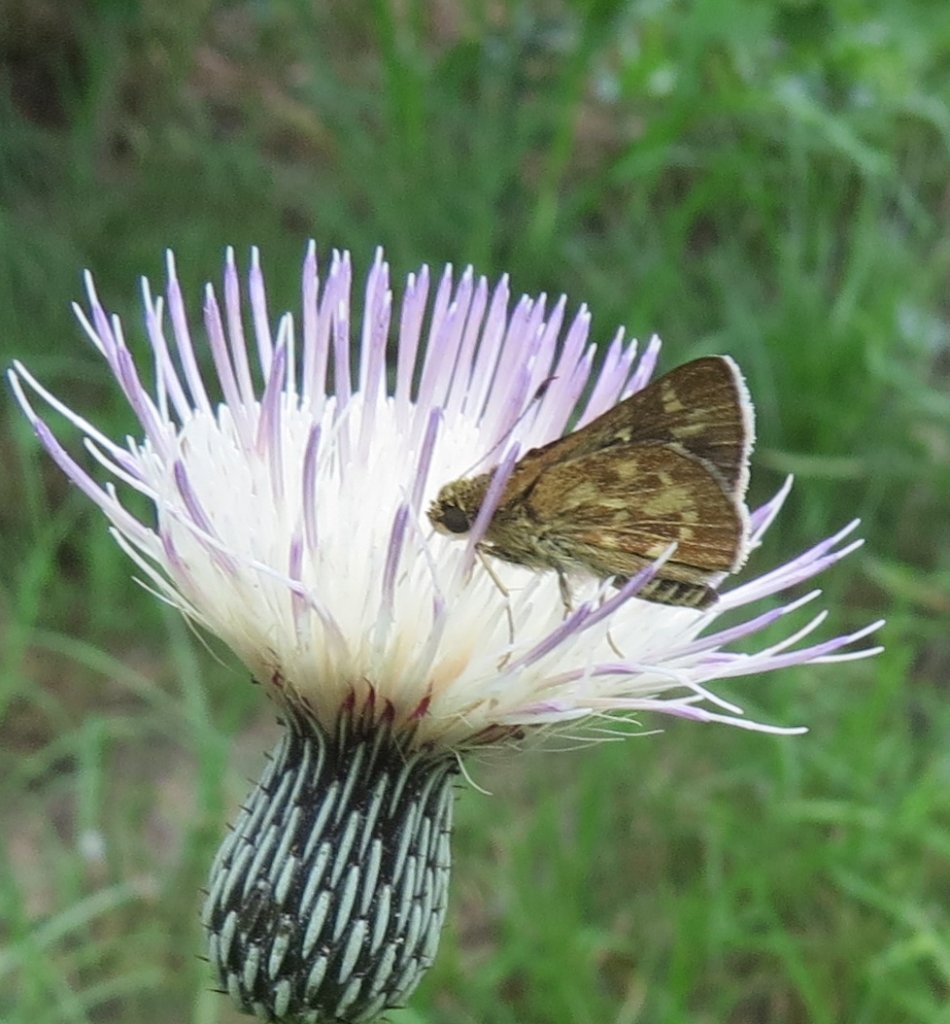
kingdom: Animalia
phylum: Arthropoda
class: Insecta
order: Lepidoptera
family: Hesperiidae
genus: Mastor
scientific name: Mastor carolina
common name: Reversed Roadside-skipper
